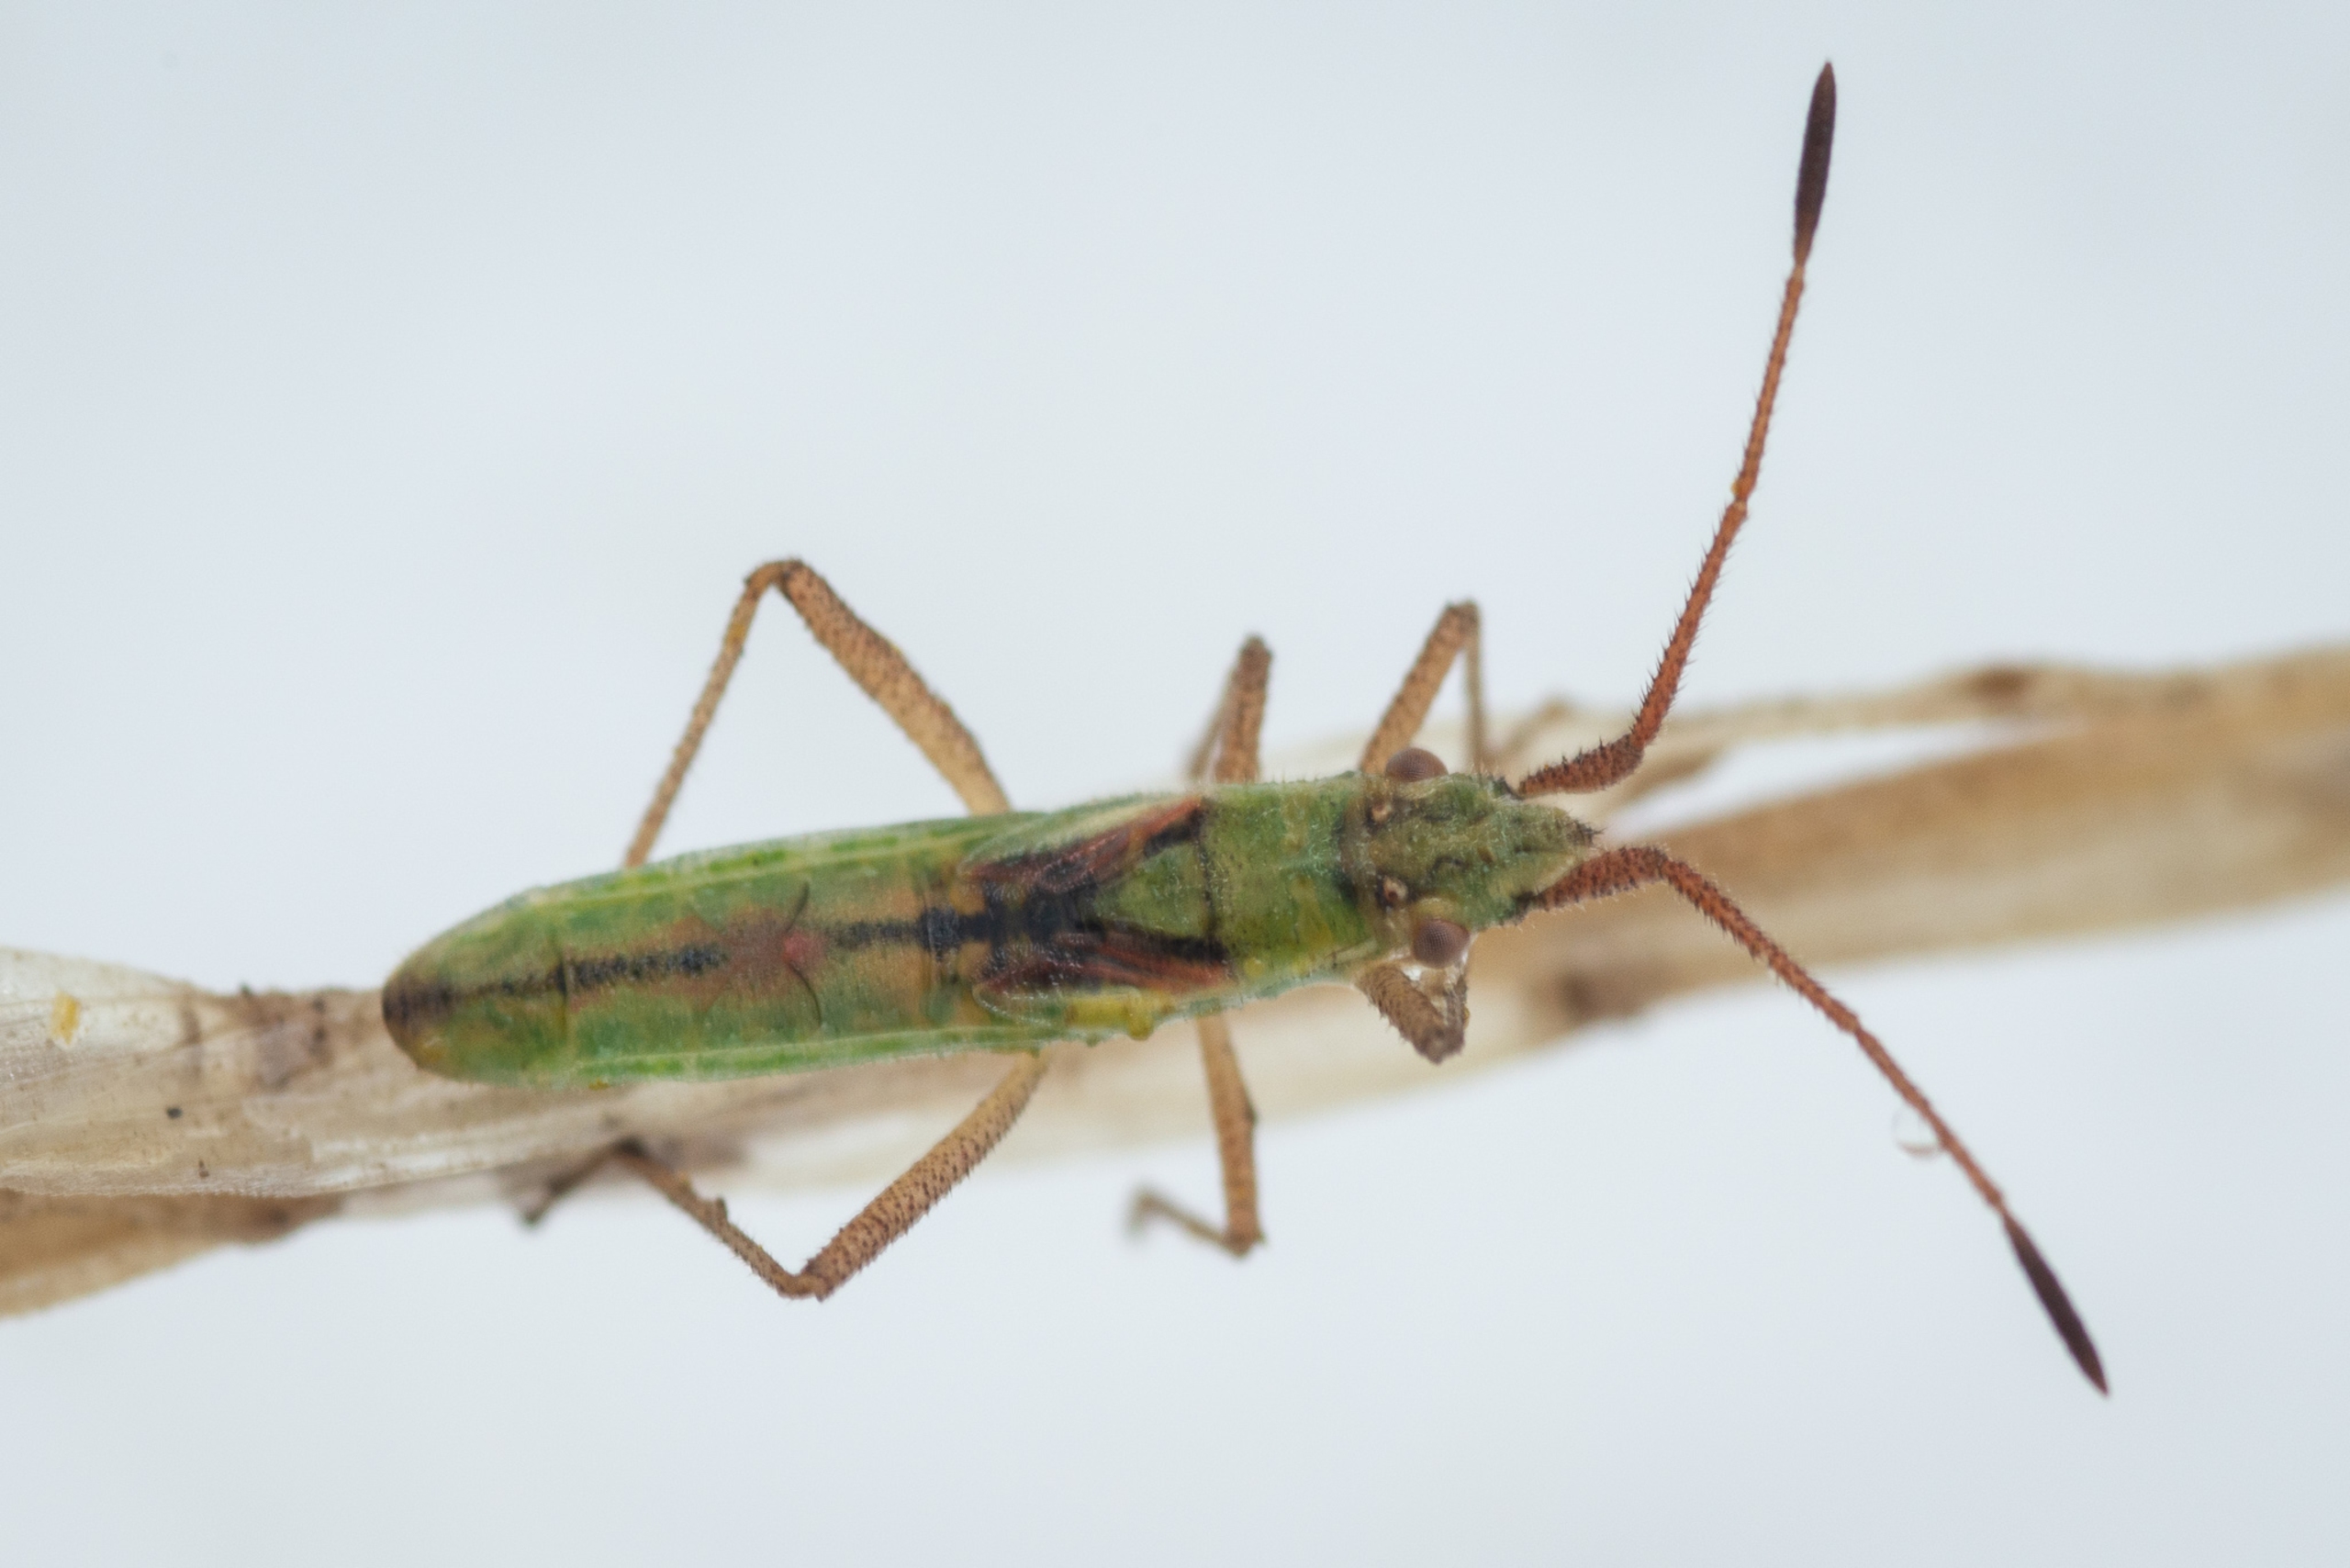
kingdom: Animalia
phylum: Arthropoda
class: Insecta
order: Hemiptera
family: Rhopalidae
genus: Myrmus
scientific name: Myrmus miriformis
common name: Lille stråtæge
